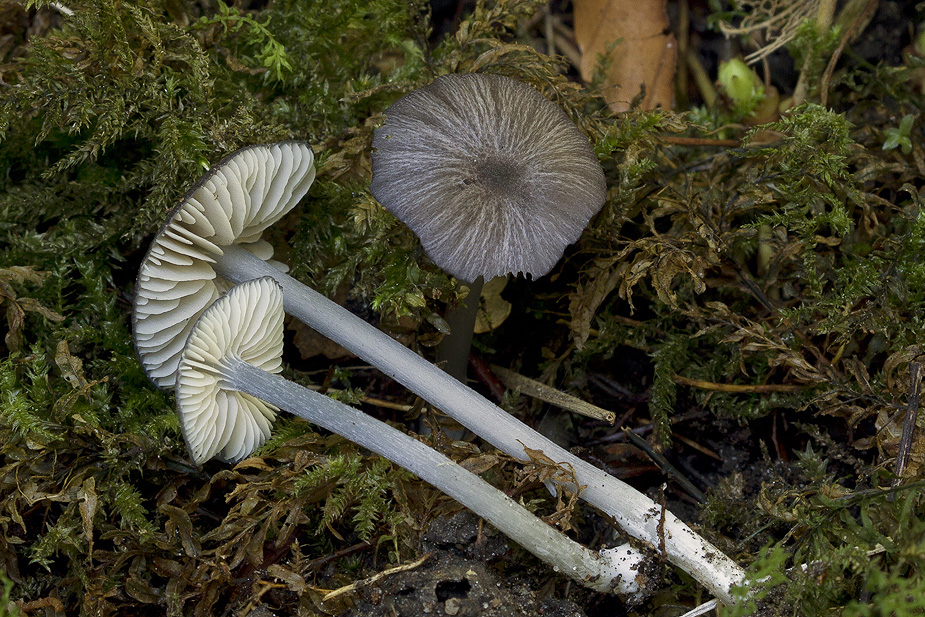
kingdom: Fungi
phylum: Basidiomycota
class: Agaricomycetes
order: Agaricales
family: Entolomataceae
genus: Entoloma
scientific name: Entoloma phaeodiscum
